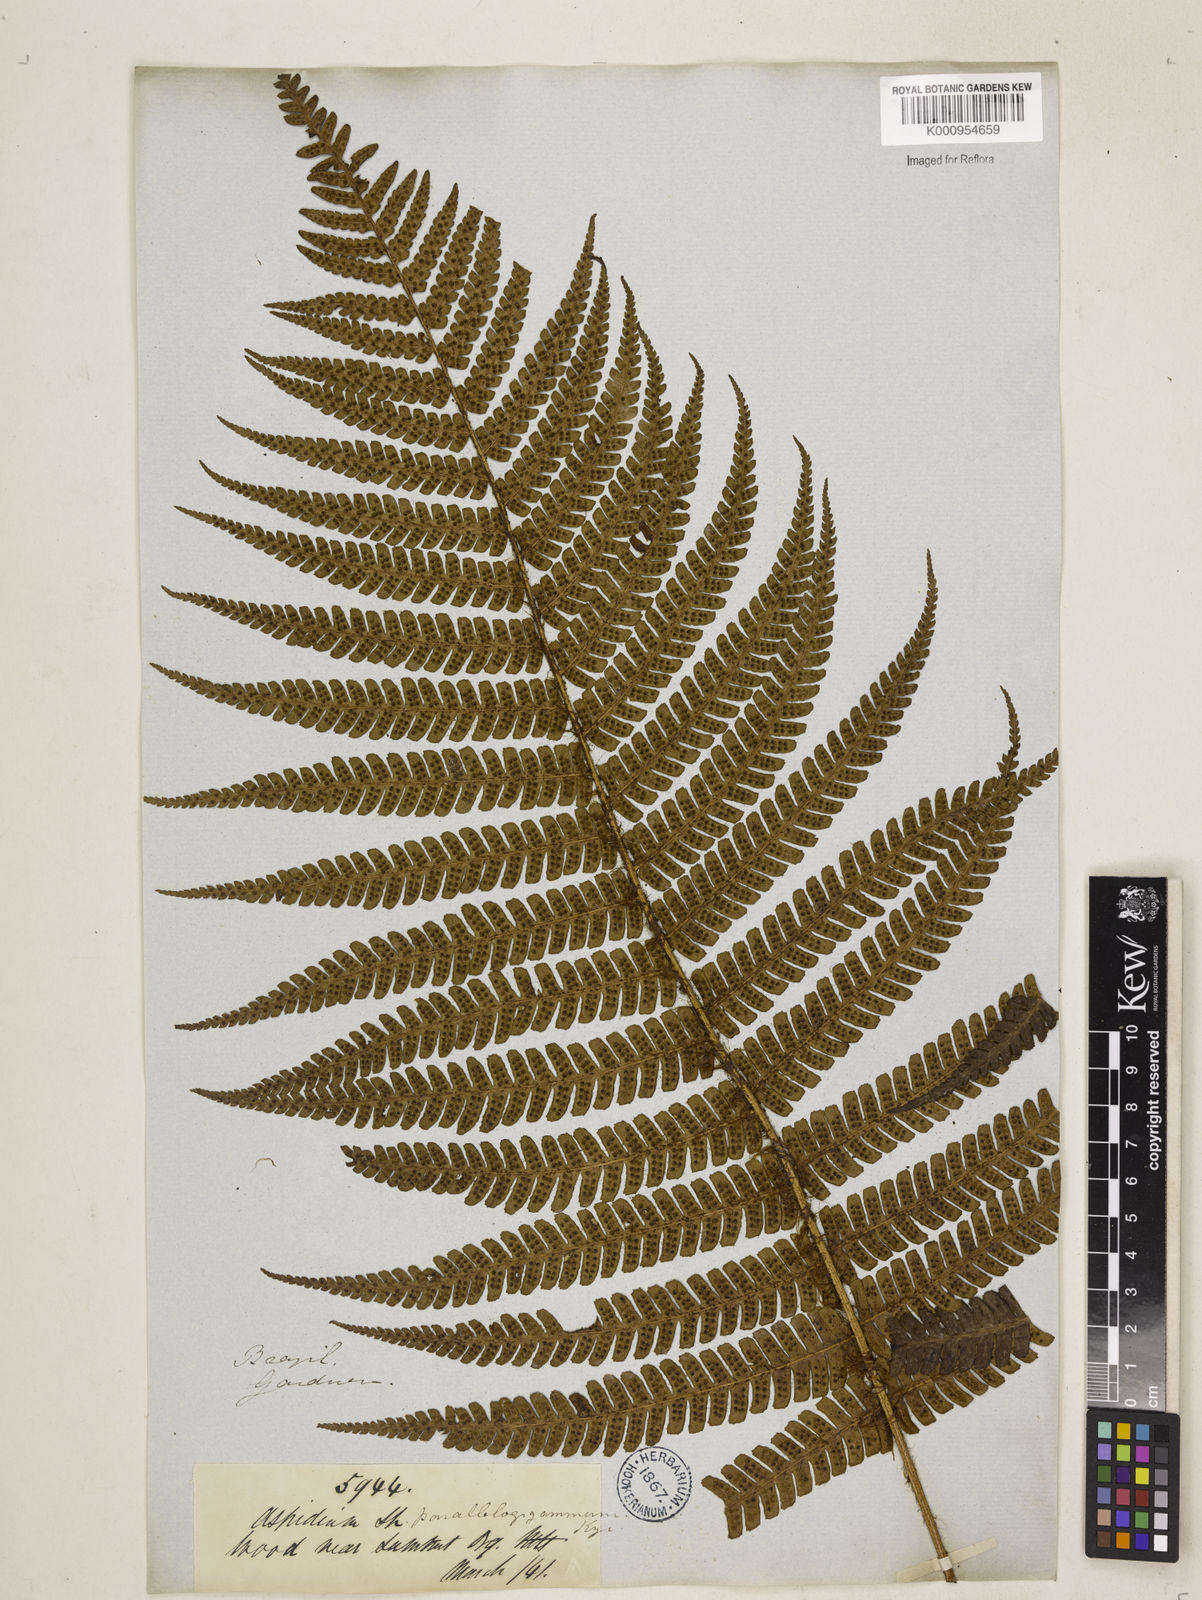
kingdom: Plantae
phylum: Tracheophyta
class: Polypodiopsida
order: Polypodiales
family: Dryopteridaceae
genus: Dryopteris
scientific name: Dryopteris
